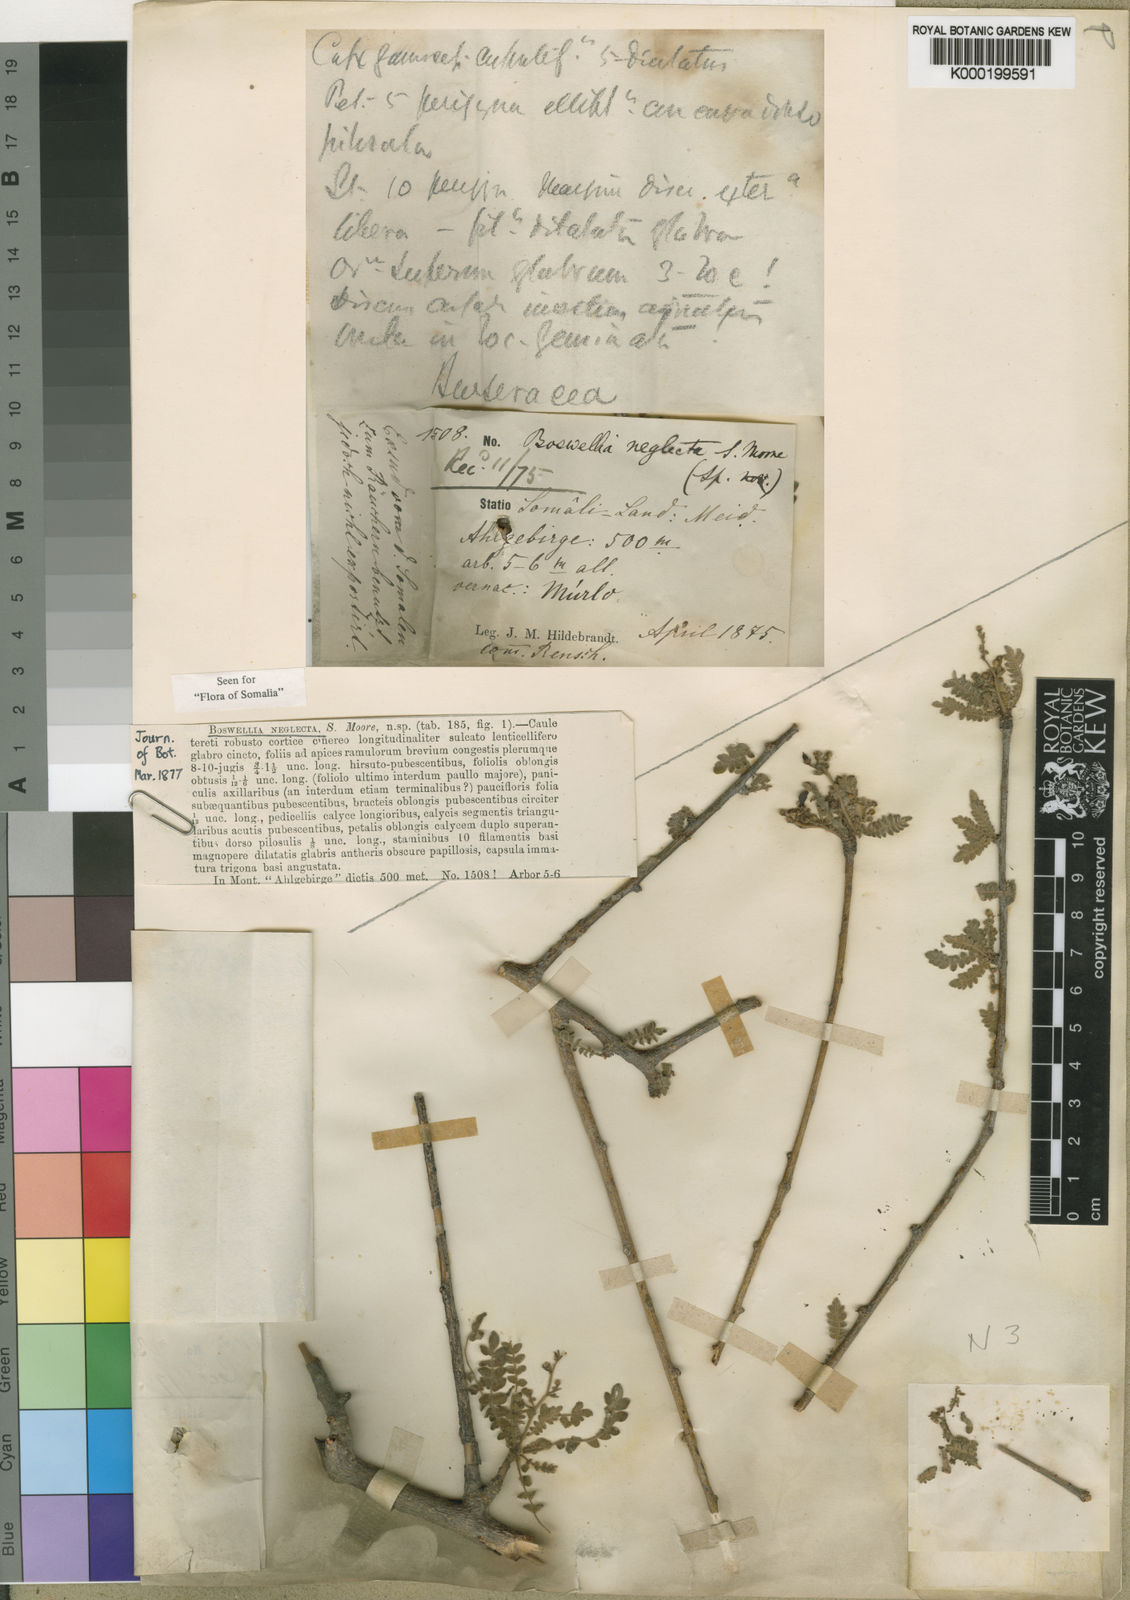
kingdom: Plantae
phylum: Tracheophyta
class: Magnoliopsida
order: Sapindales
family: Burseraceae
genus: Boswellia
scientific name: Boswellia neglecta
